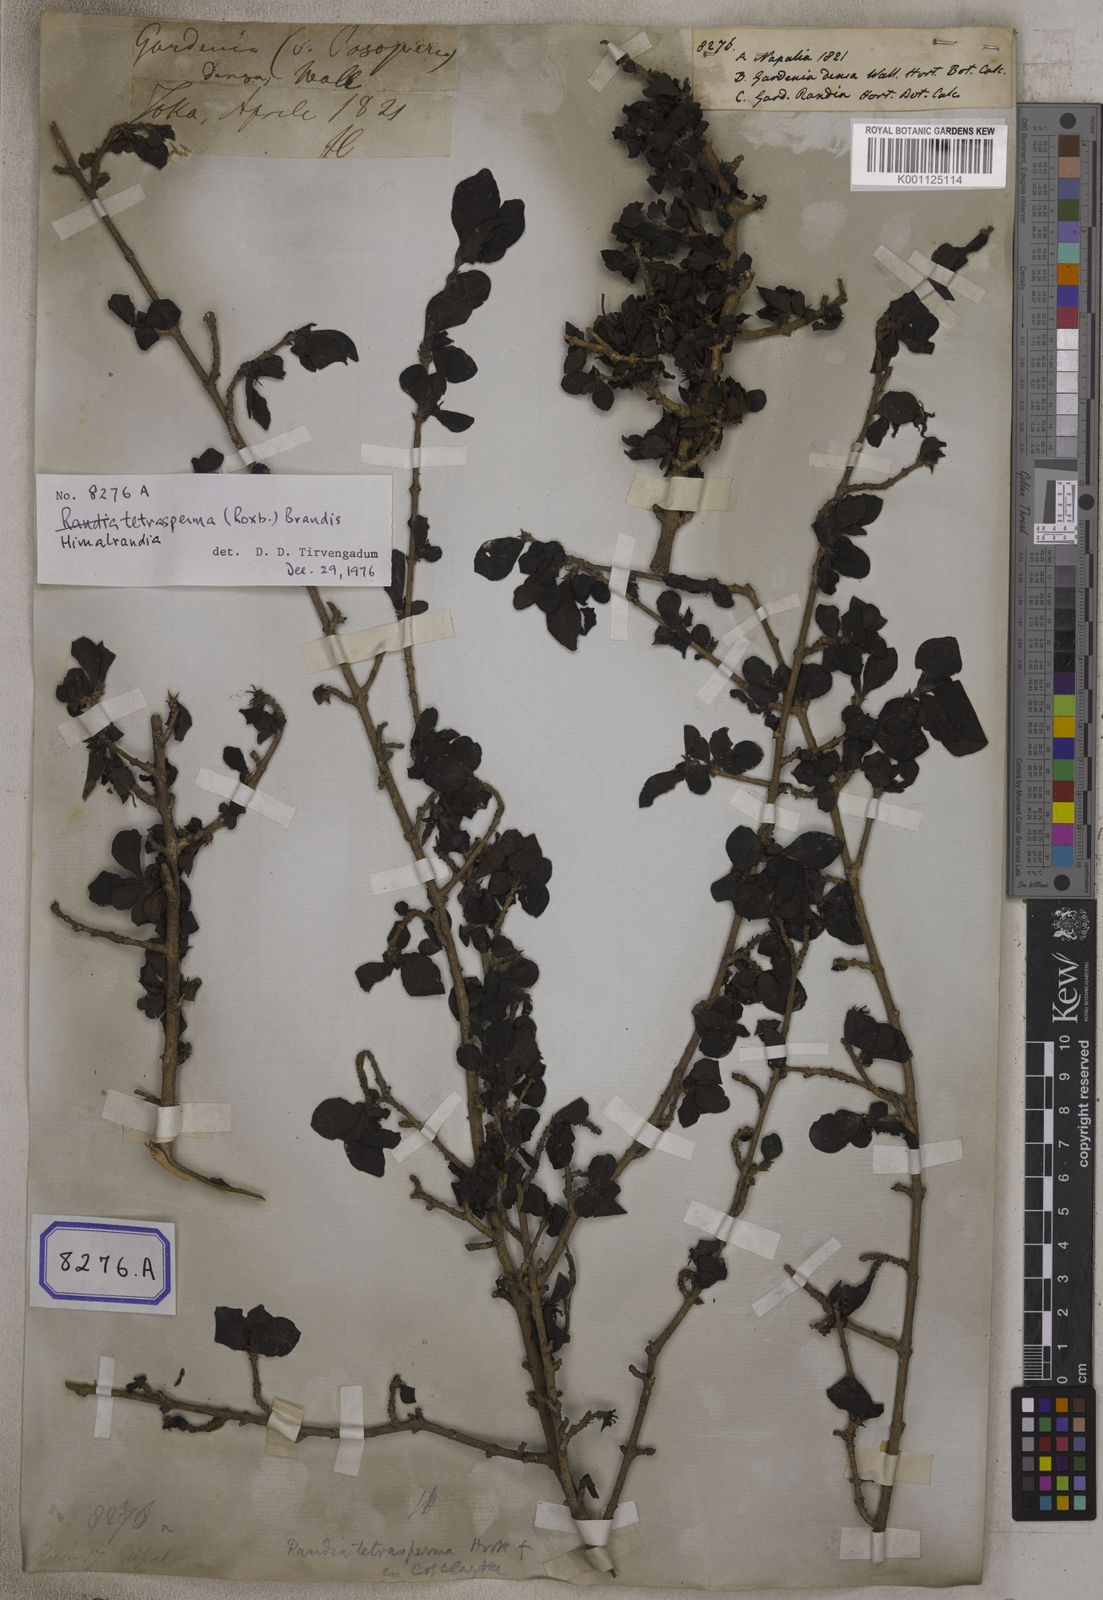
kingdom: Plantae
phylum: Tracheophyta
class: Magnoliopsida
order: Gentianales
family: Rubiaceae
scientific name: Rubiaceae
